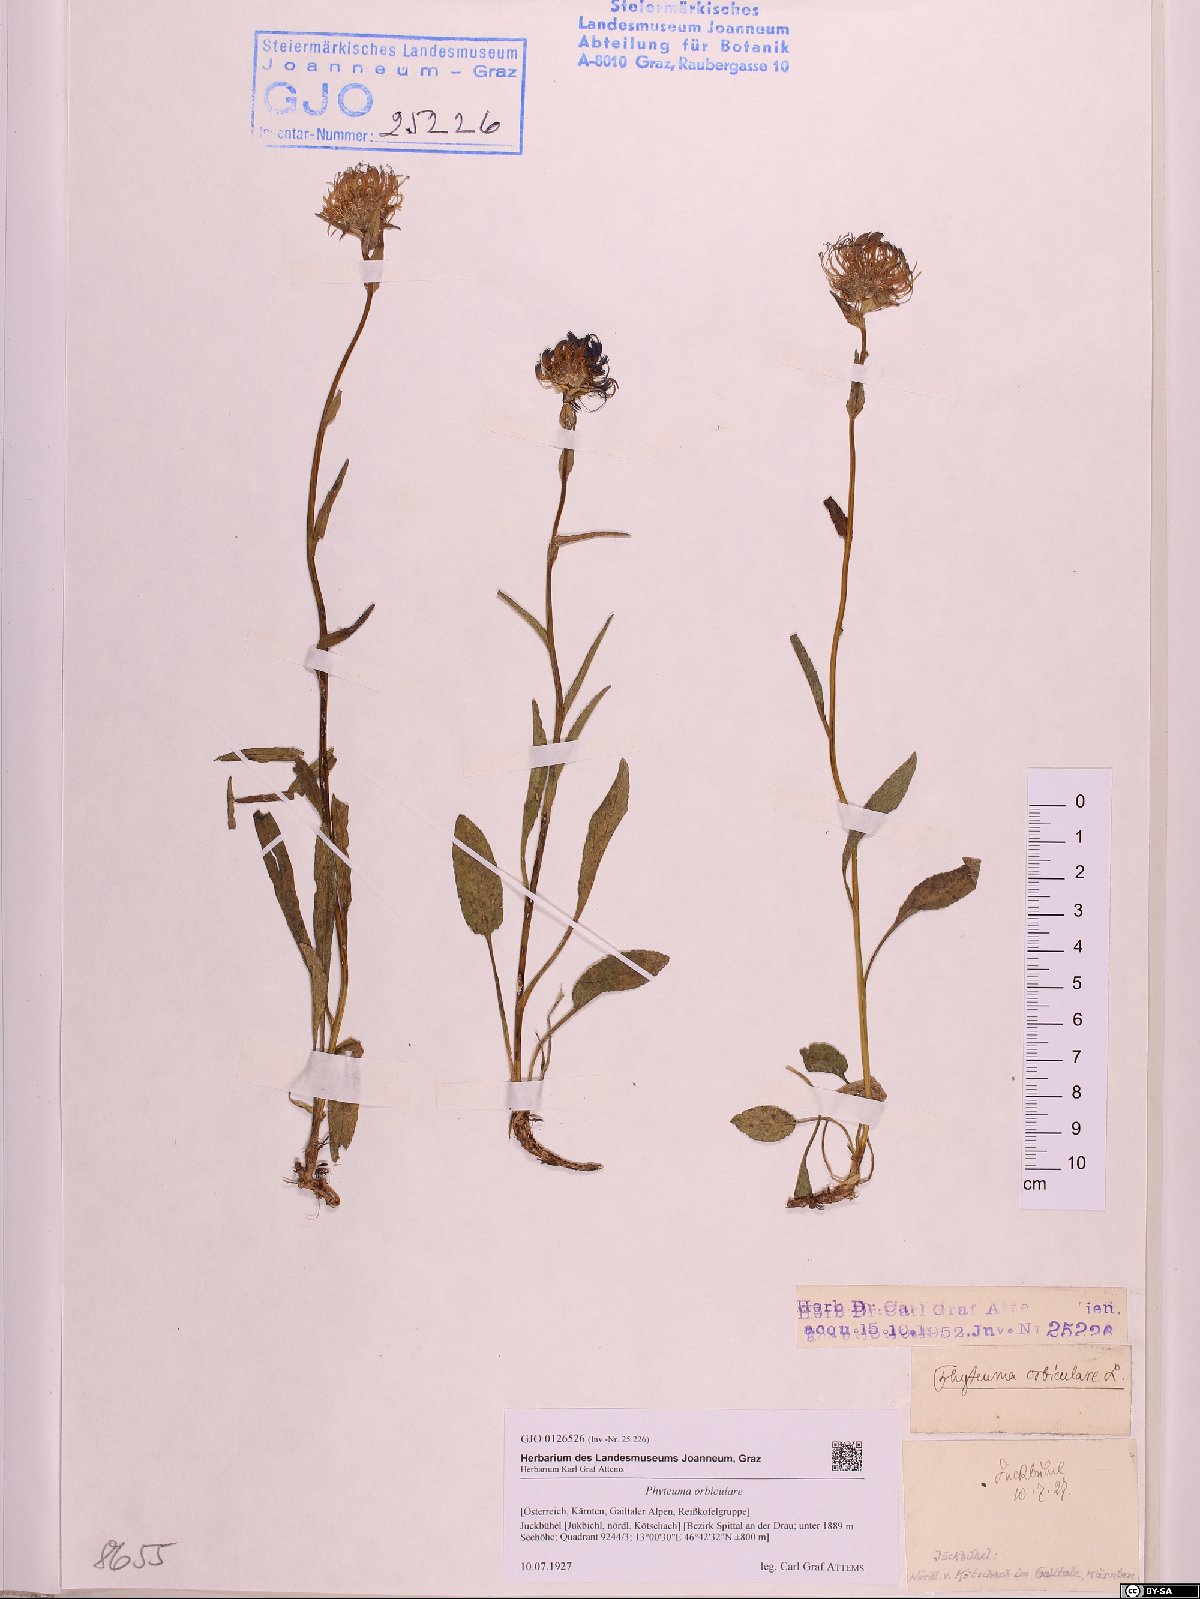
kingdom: Plantae
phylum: Tracheophyta
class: Magnoliopsida
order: Asterales
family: Campanulaceae
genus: Phyteuma
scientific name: Phyteuma orbiculare
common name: Round-headed rampion
